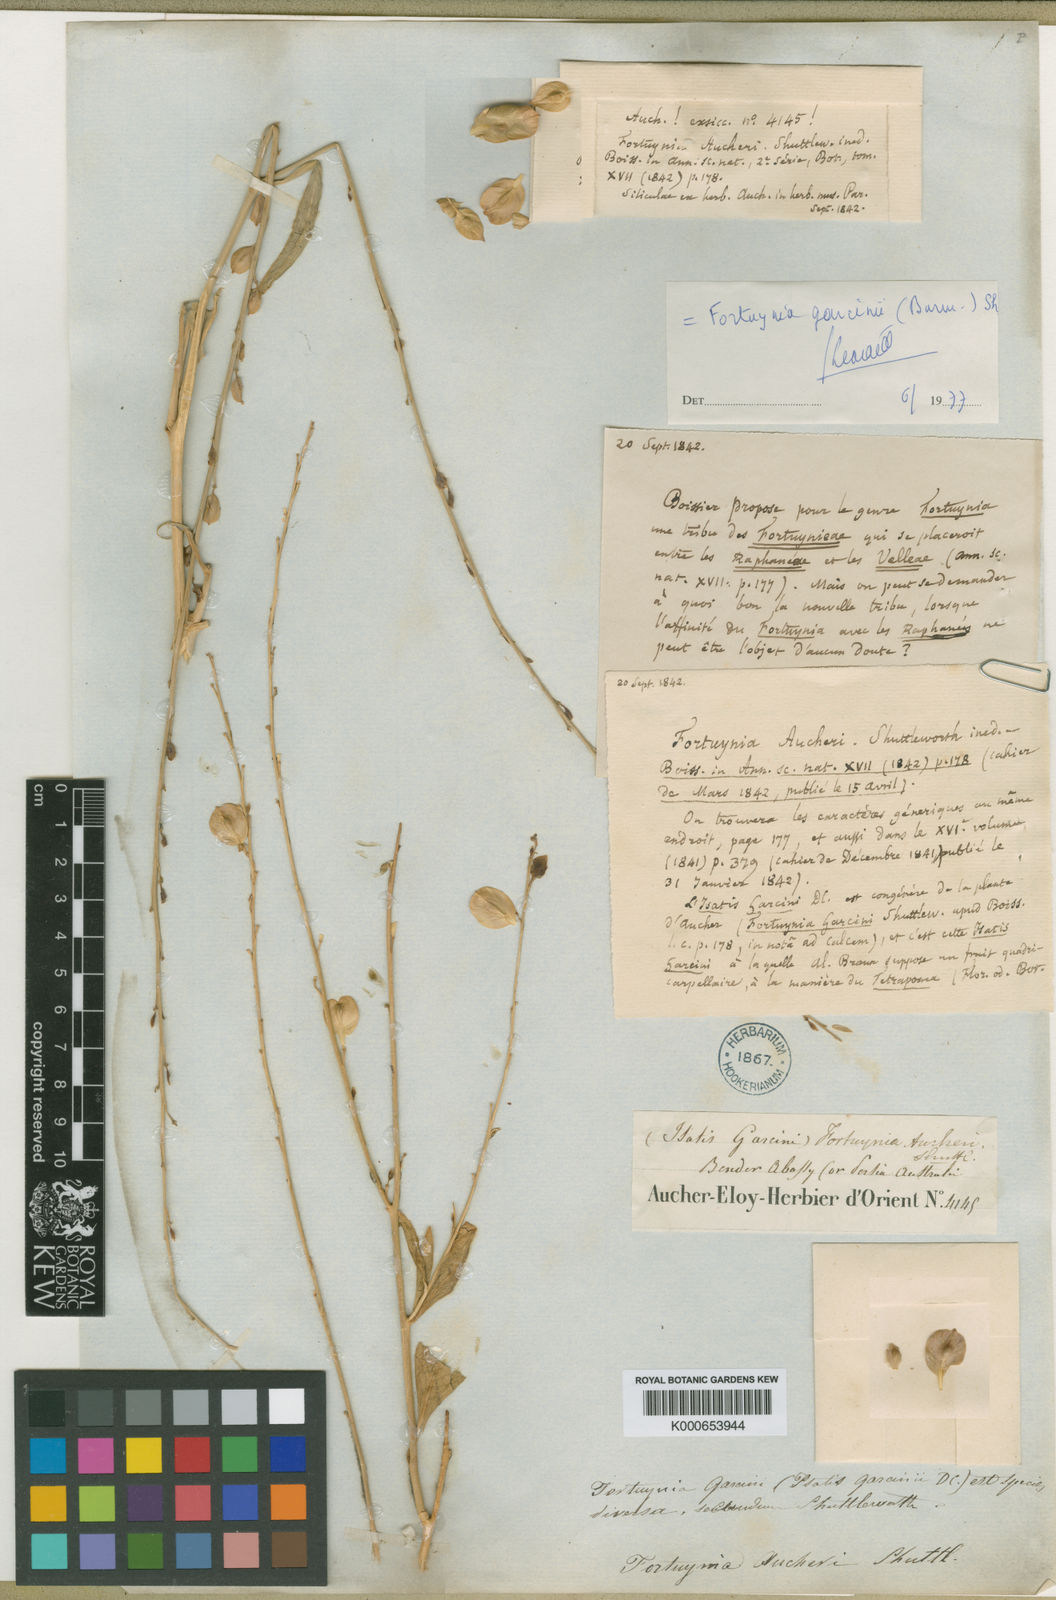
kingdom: Plantae
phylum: Tracheophyta
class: Magnoliopsida
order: Brassicales
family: Brassicaceae
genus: Fortuynia
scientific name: Fortuynia garcinii
